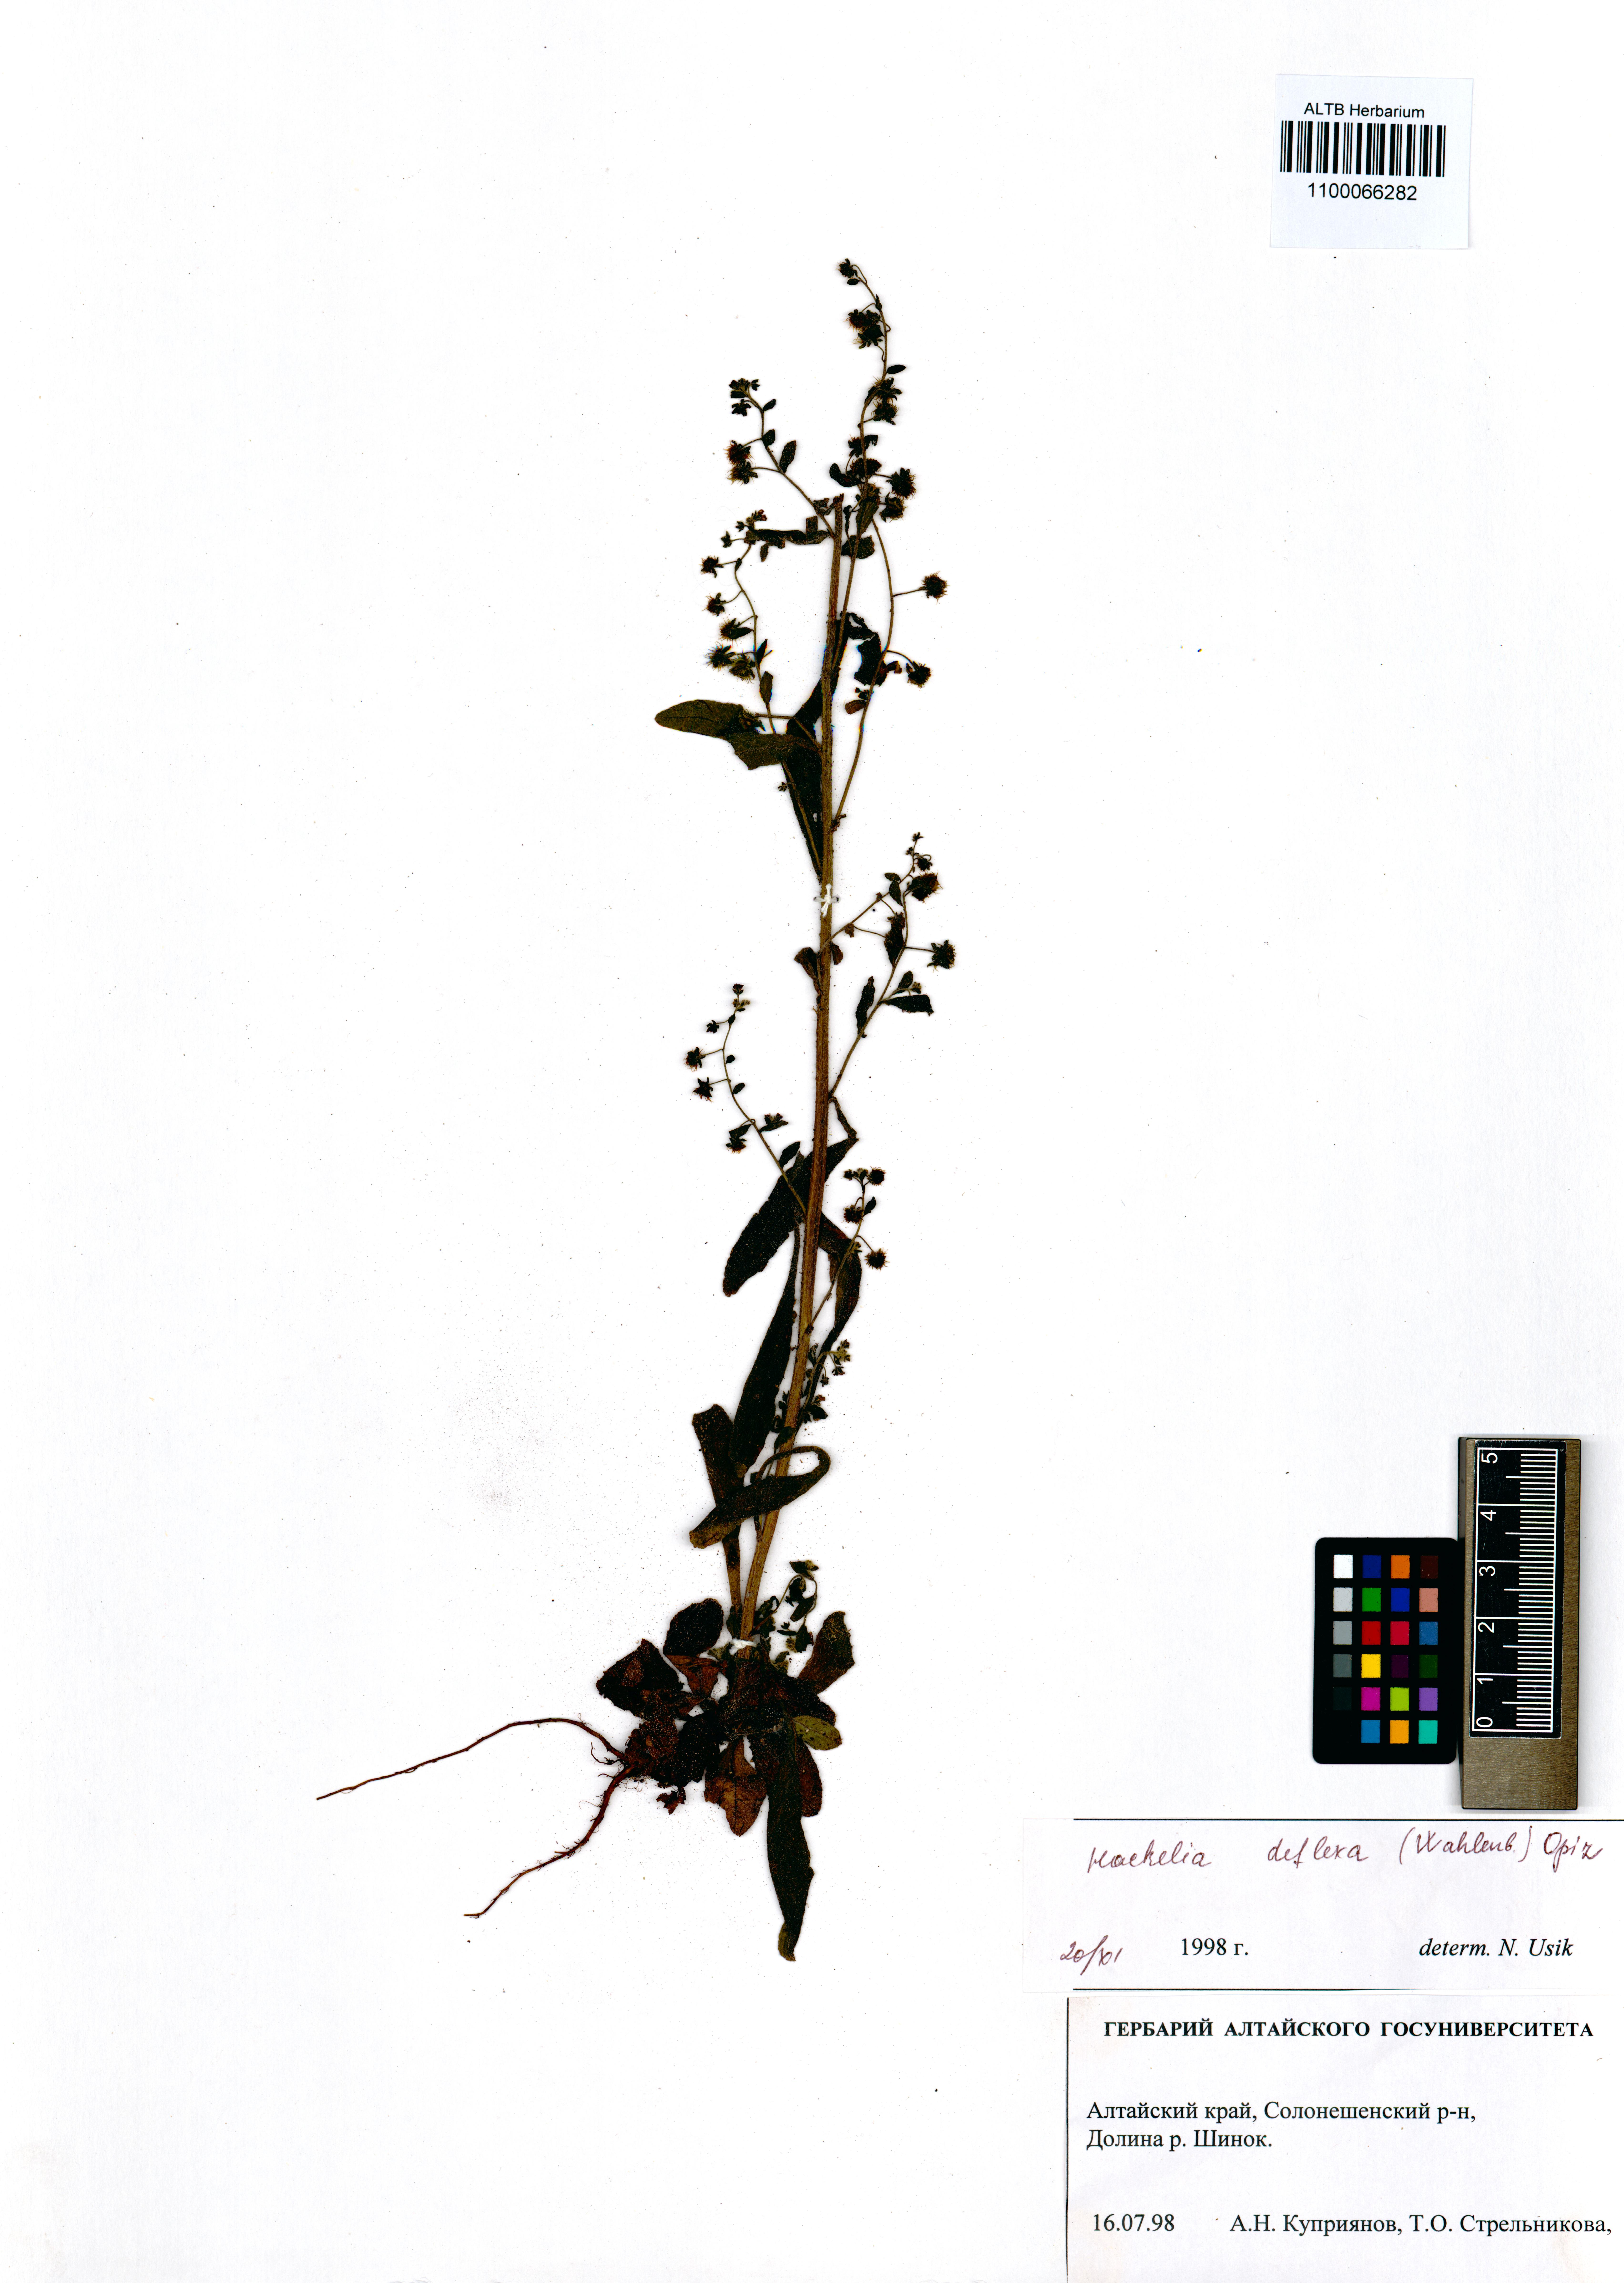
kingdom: Plantae
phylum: Tracheophyta
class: Magnoliopsida
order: Boraginales
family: Boraginaceae
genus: Hackelia
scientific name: Hackelia deflexa
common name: Nodding stickseed
